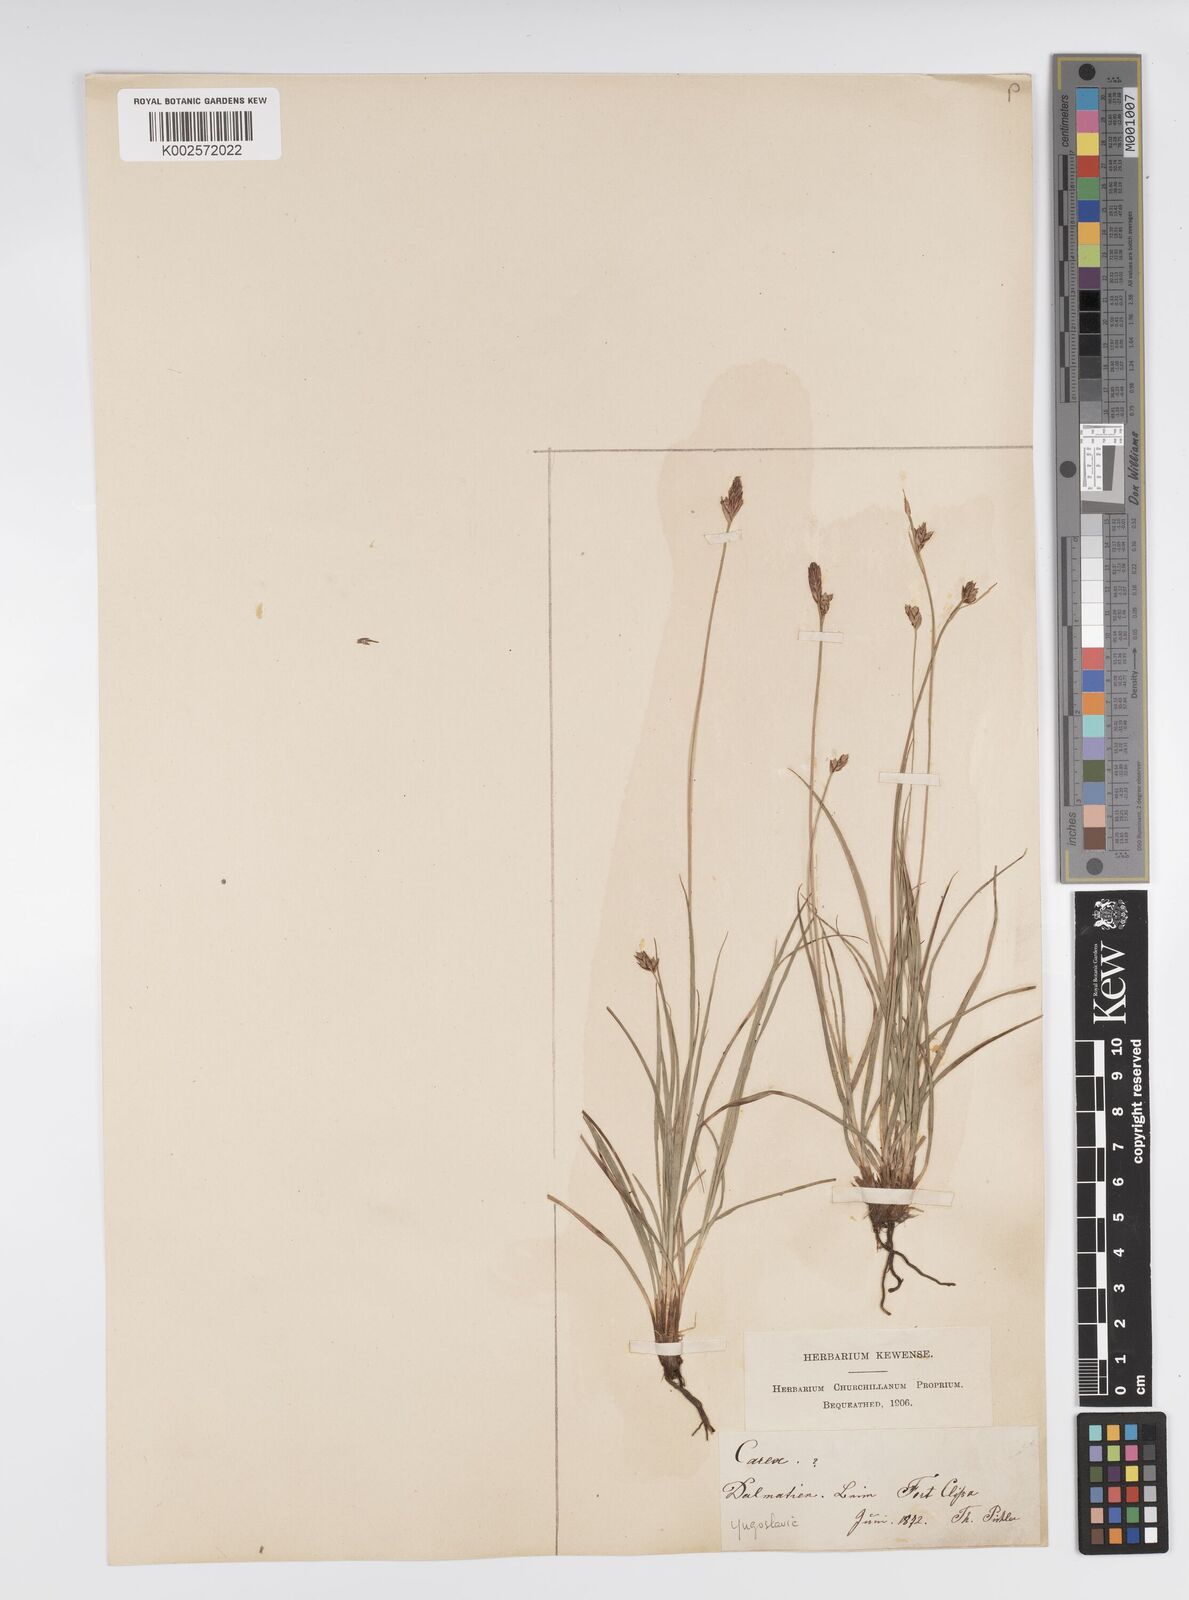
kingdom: Plantae
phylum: Tracheophyta
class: Liliopsida
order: Poales
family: Cyperaceae
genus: Carex
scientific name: Carex halleriana
